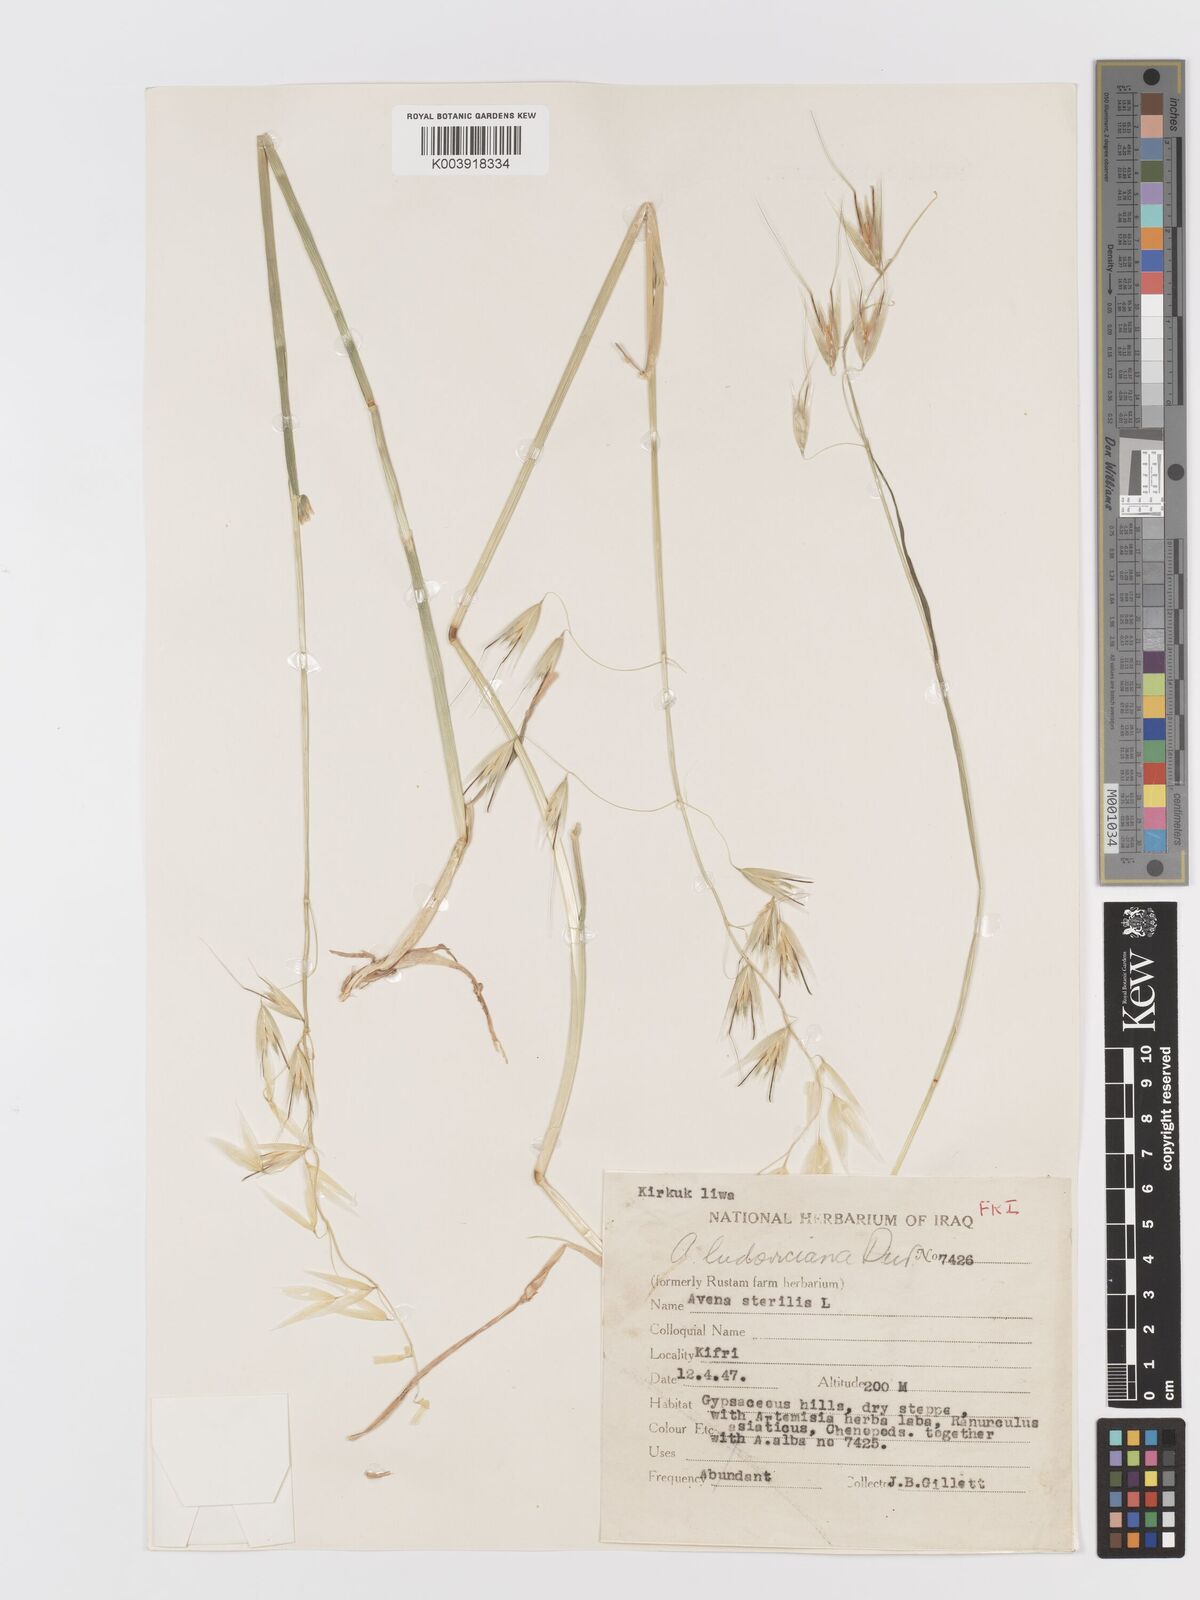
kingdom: Plantae
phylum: Tracheophyta
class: Liliopsida
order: Poales
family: Poaceae
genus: Avena
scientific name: Avena sterilis
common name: Animated oat
